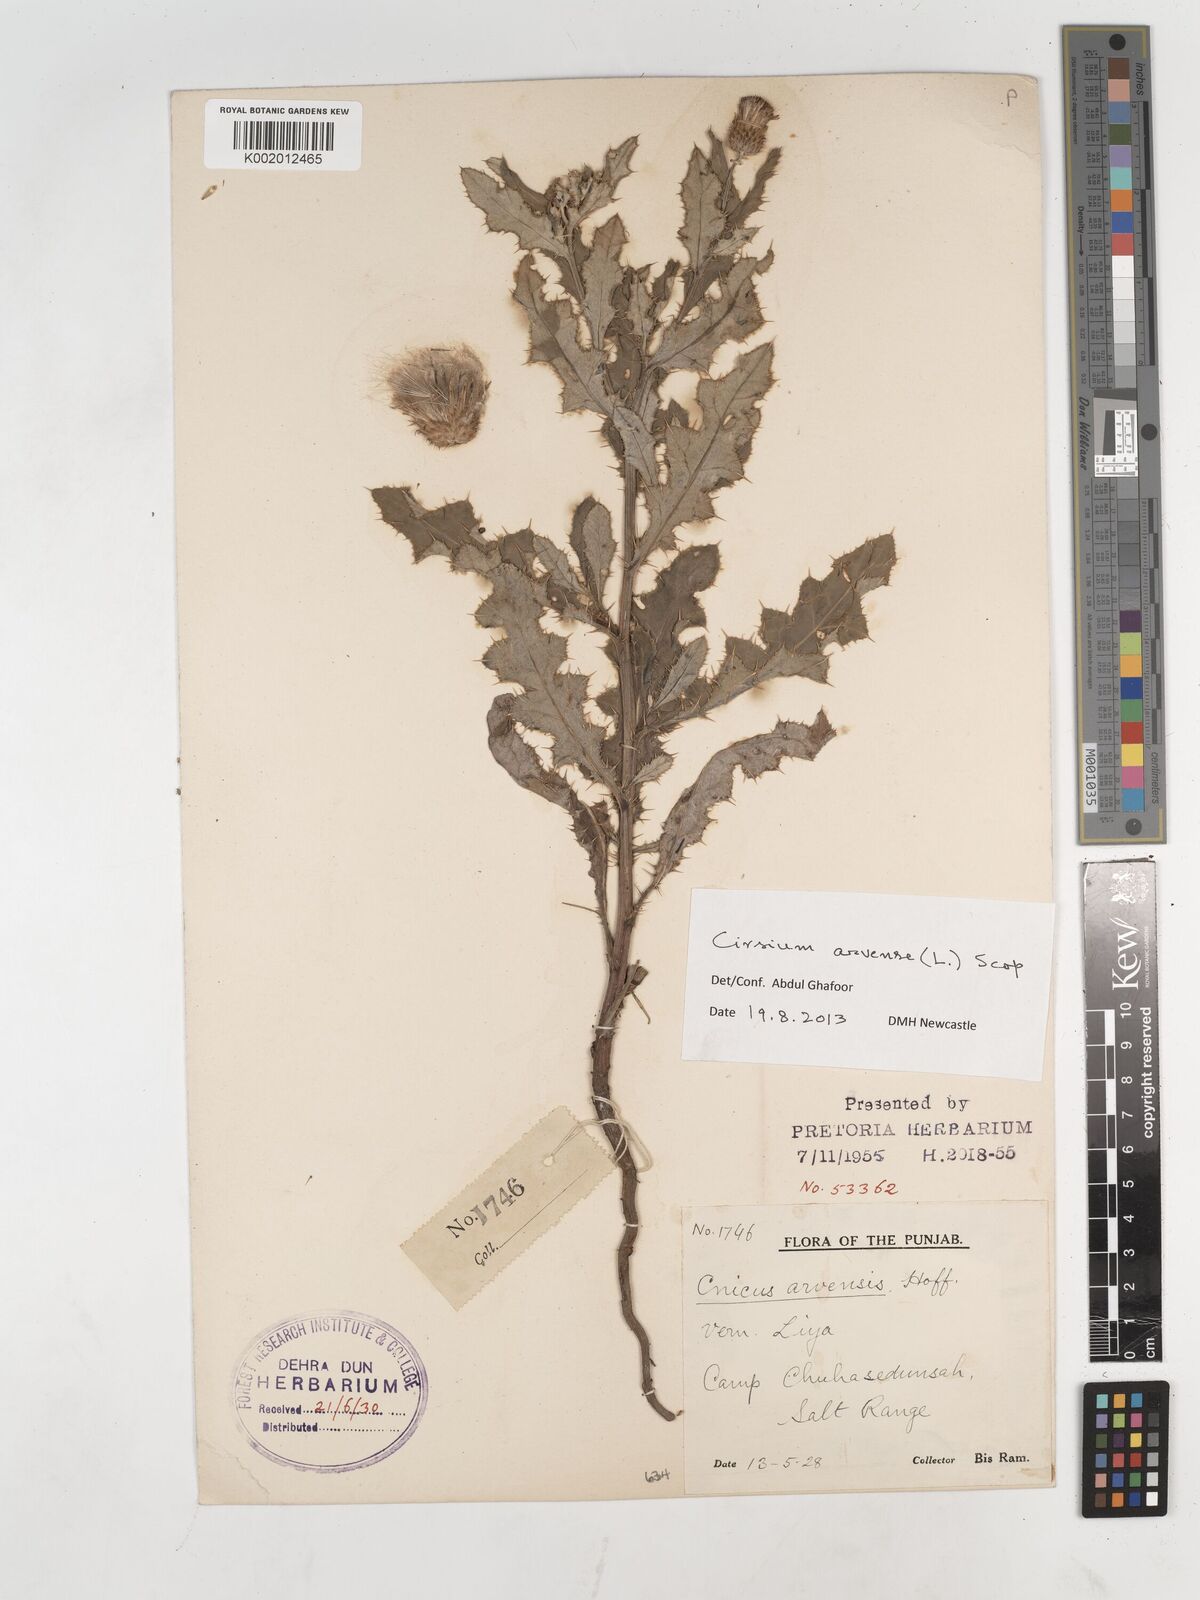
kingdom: Plantae
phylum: Tracheophyta
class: Magnoliopsida
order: Asterales
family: Asteraceae
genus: Cirsium
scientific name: Cirsium arvense
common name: Creeping thistle
